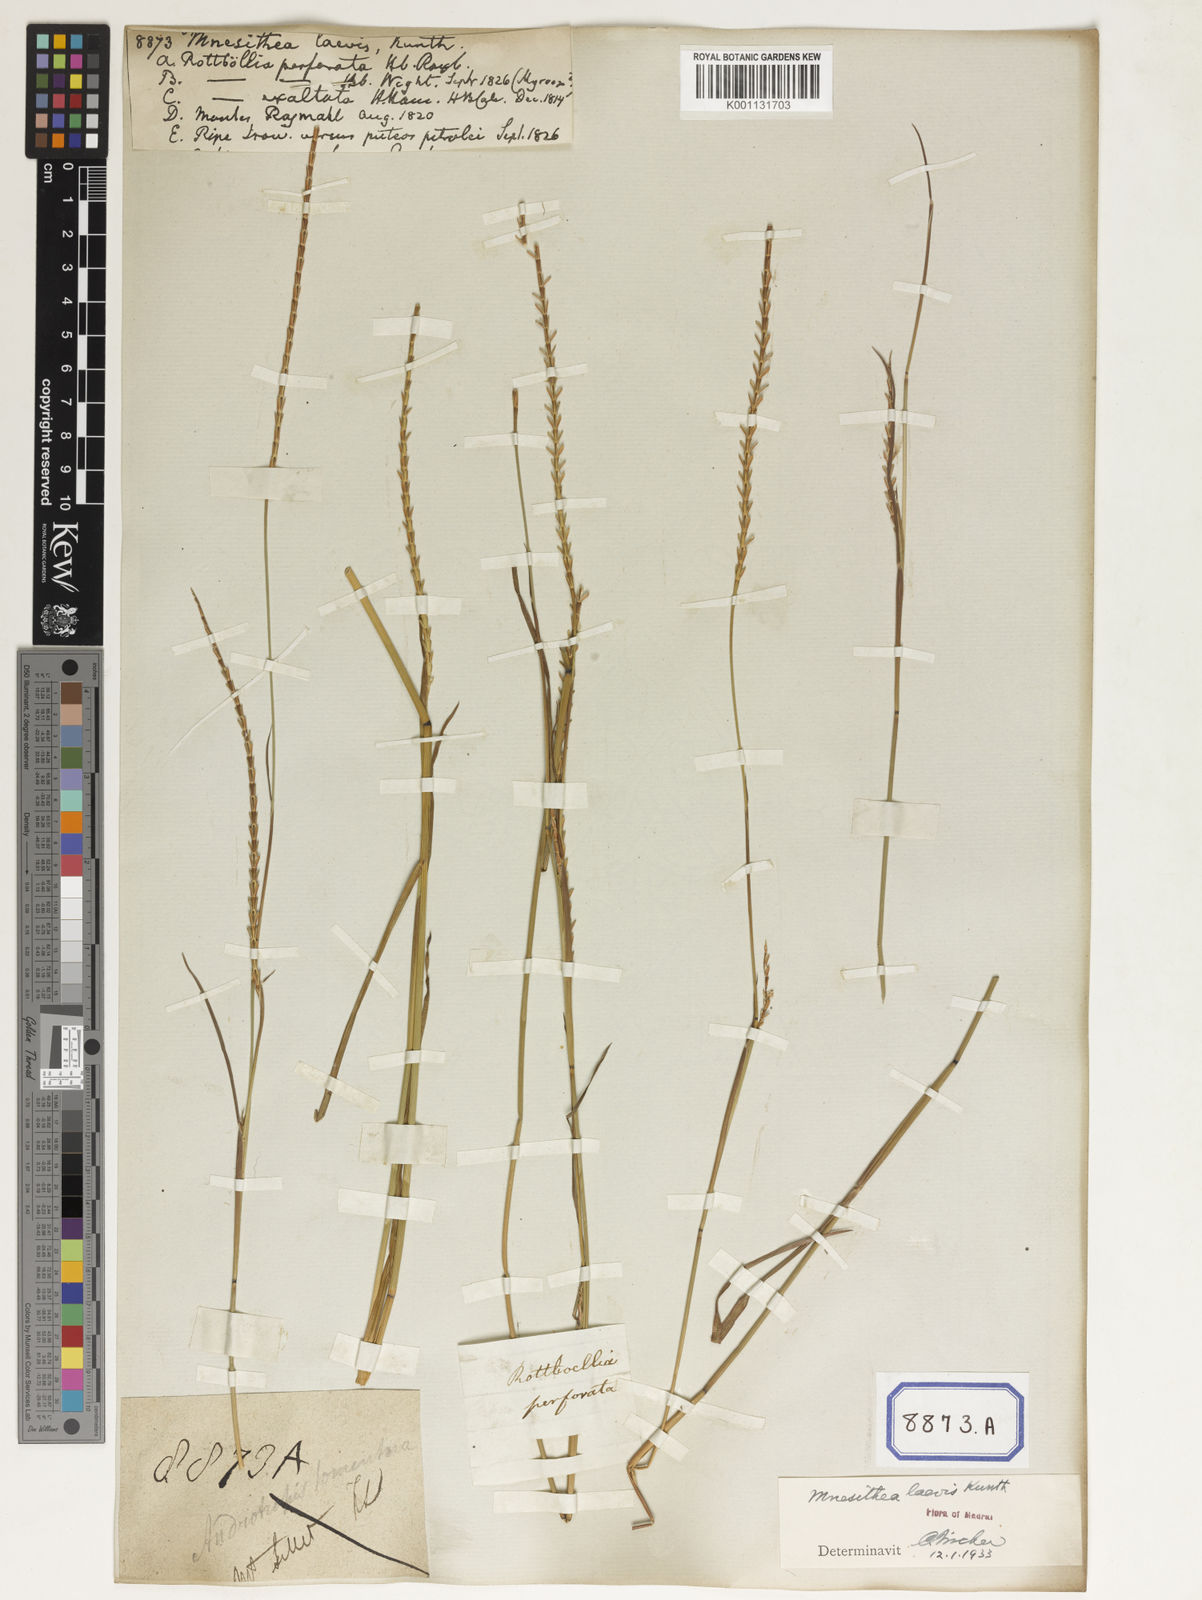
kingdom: Plantae
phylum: Tracheophyta
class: Liliopsida
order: Poales
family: Poaceae
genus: Mnesithea
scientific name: Mnesithea laevis
